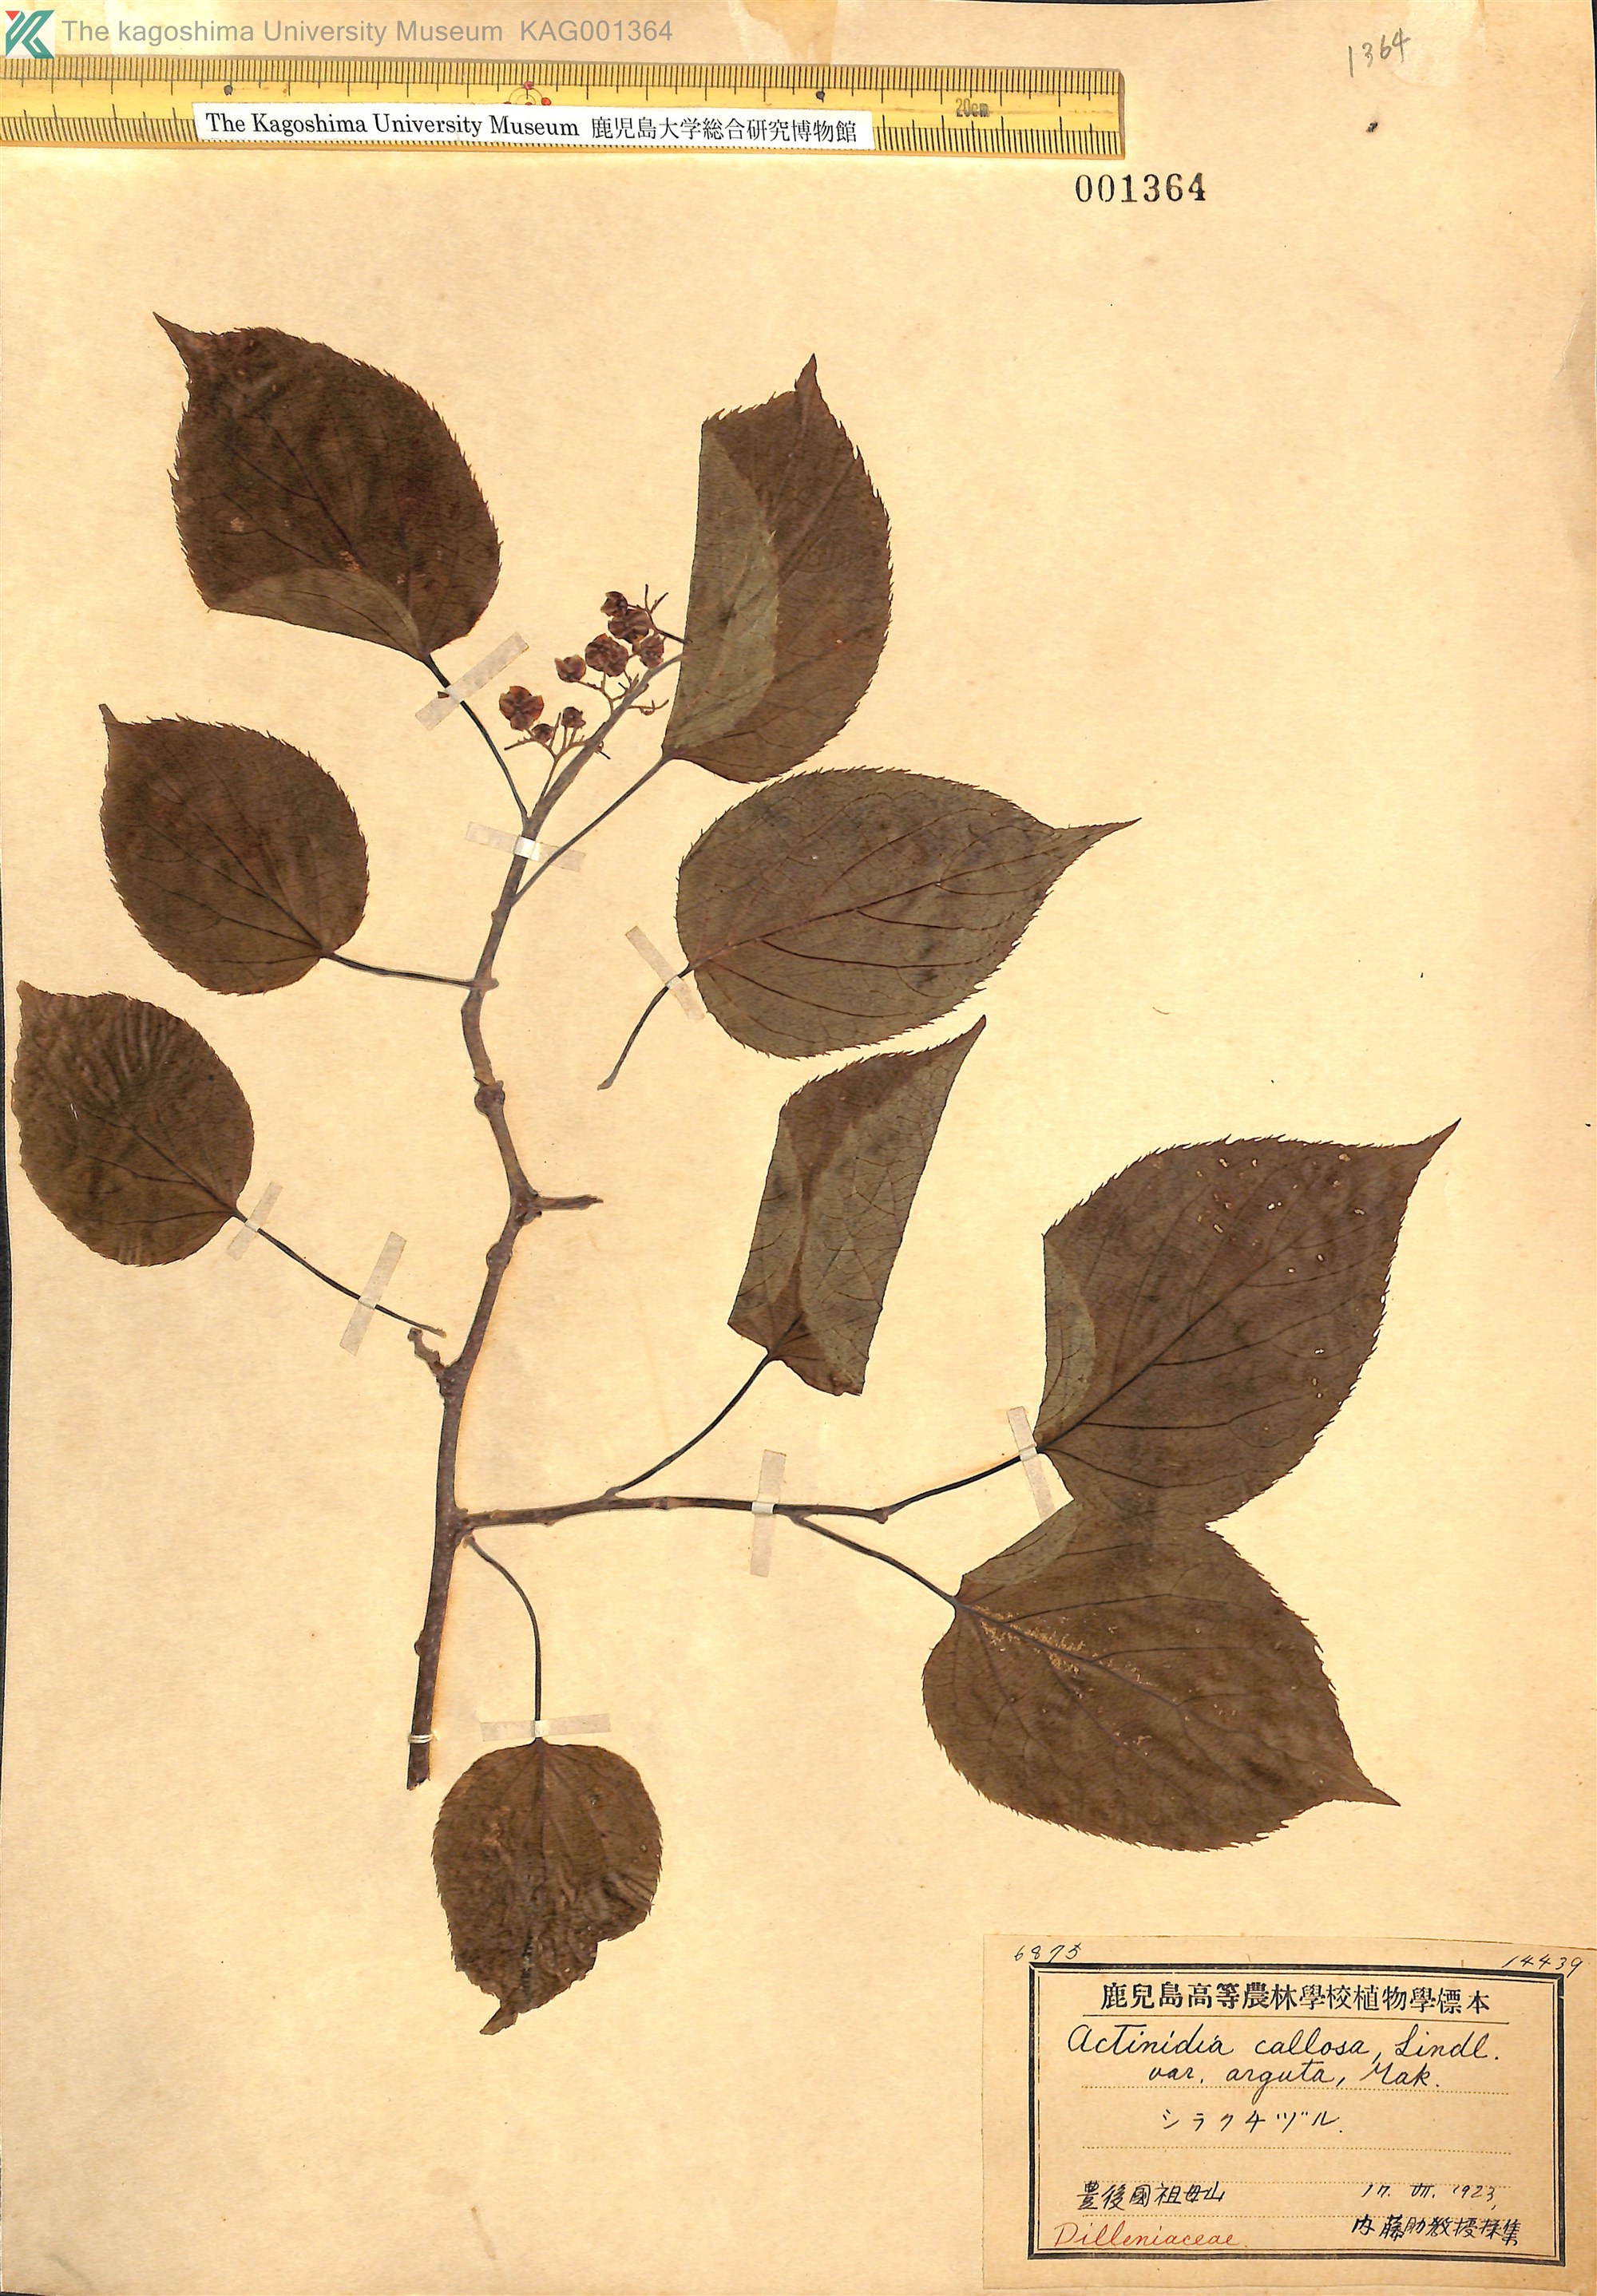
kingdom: Plantae
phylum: Tracheophyta
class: Magnoliopsida
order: Ericales
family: Actinidiaceae
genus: Actinidia
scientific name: Actinidia arguta
